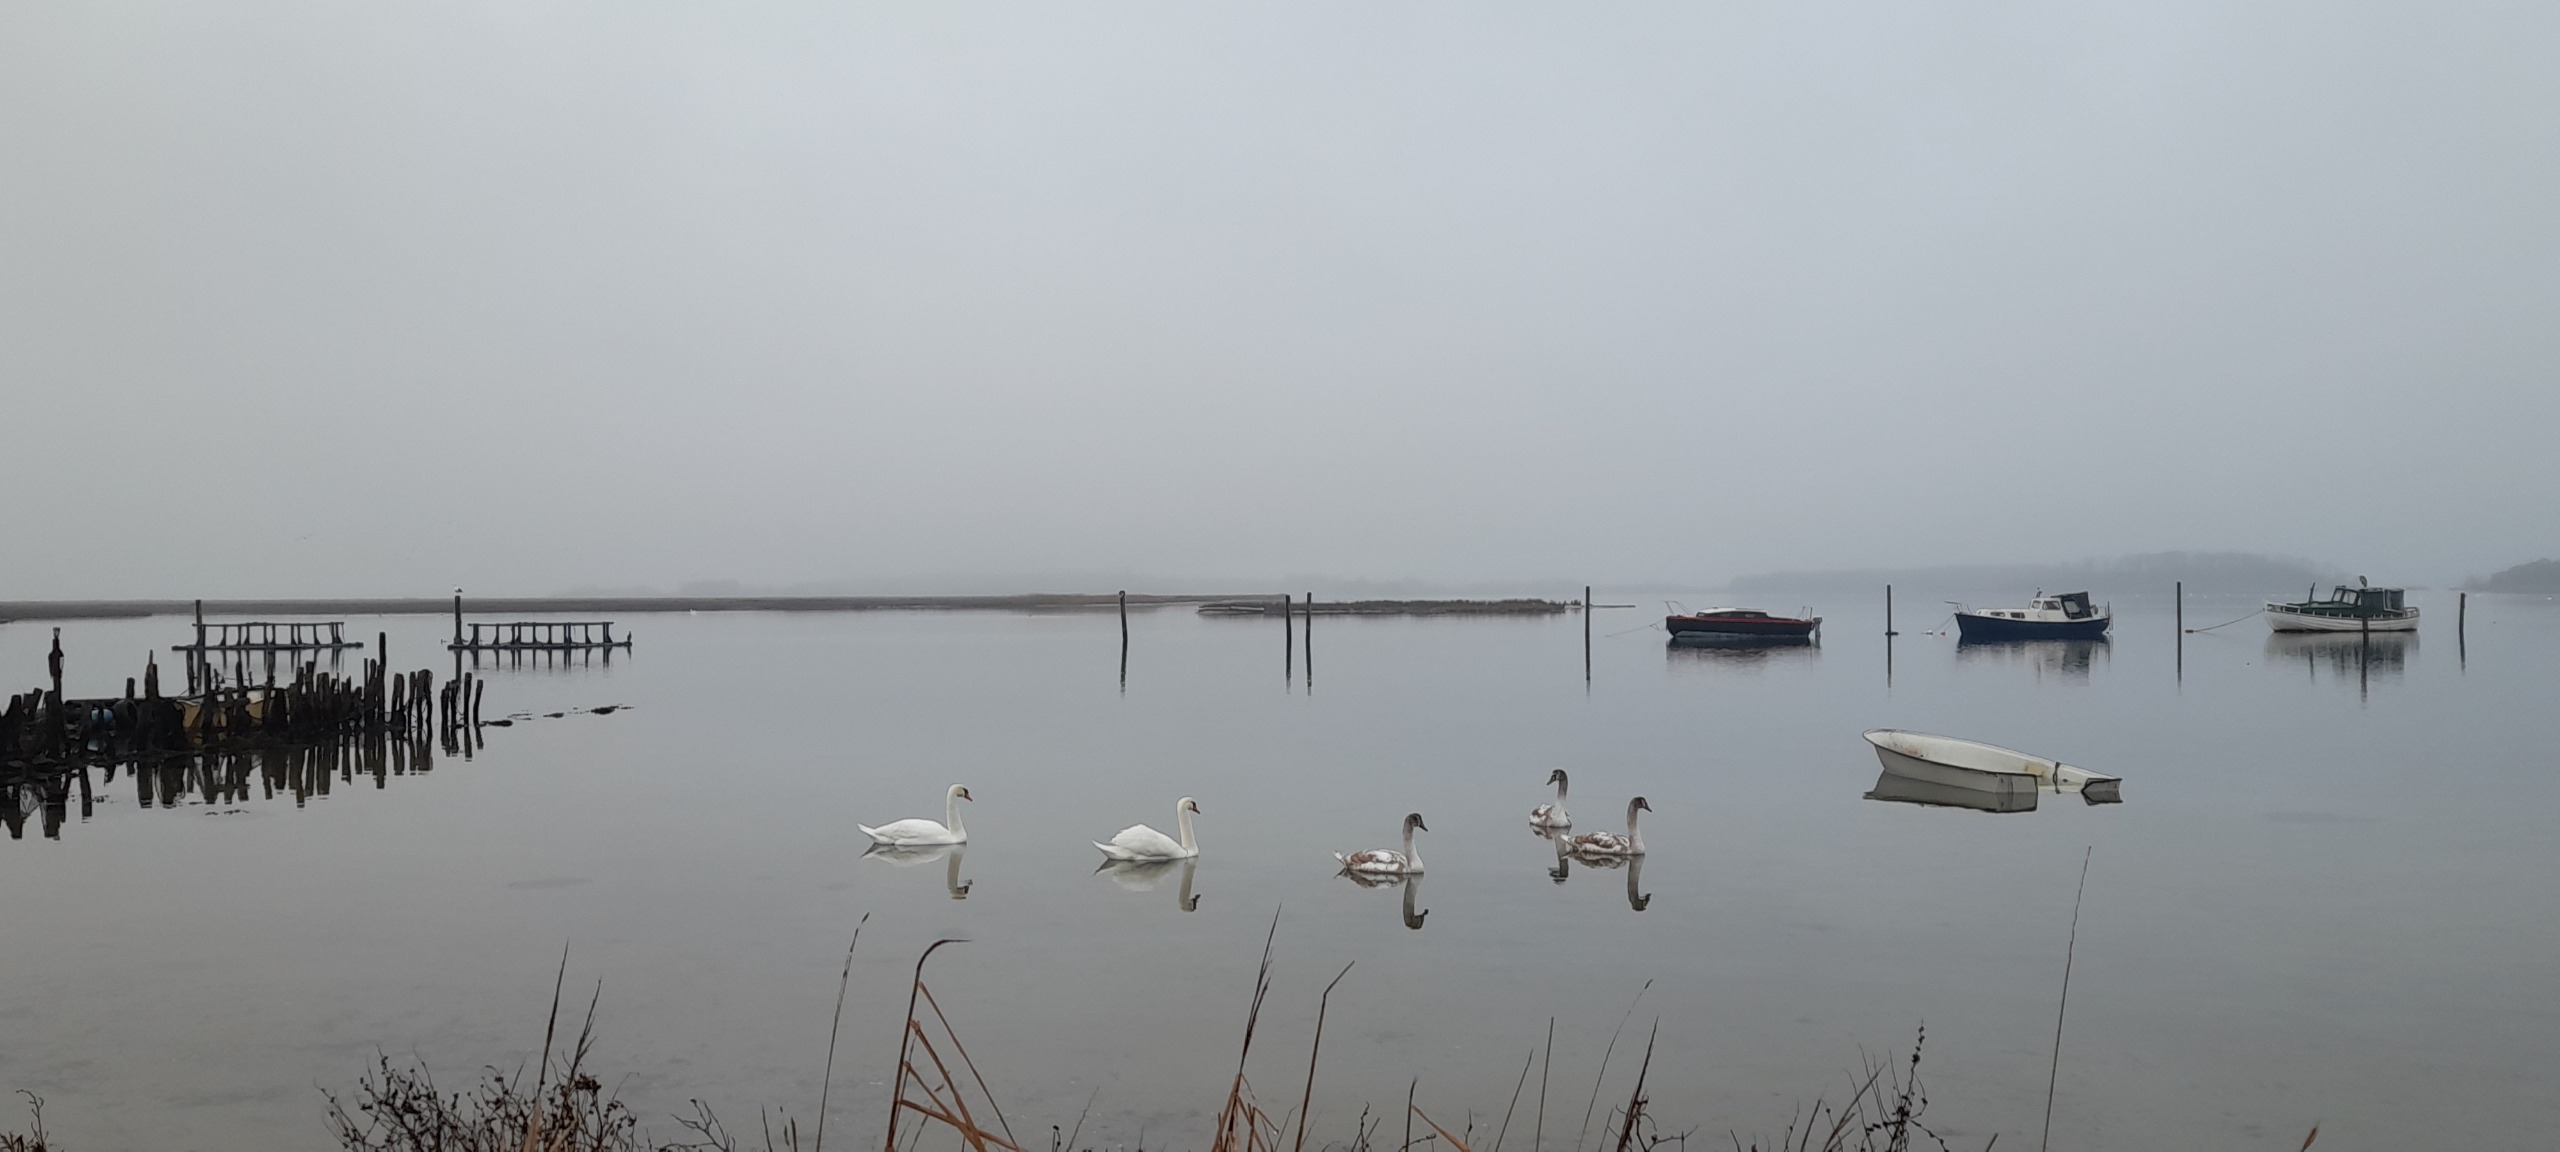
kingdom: Animalia
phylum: Chordata
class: Aves
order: Anseriformes
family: Anatidae
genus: Cygnus
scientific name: Cygnus olor
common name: Knopsvane
